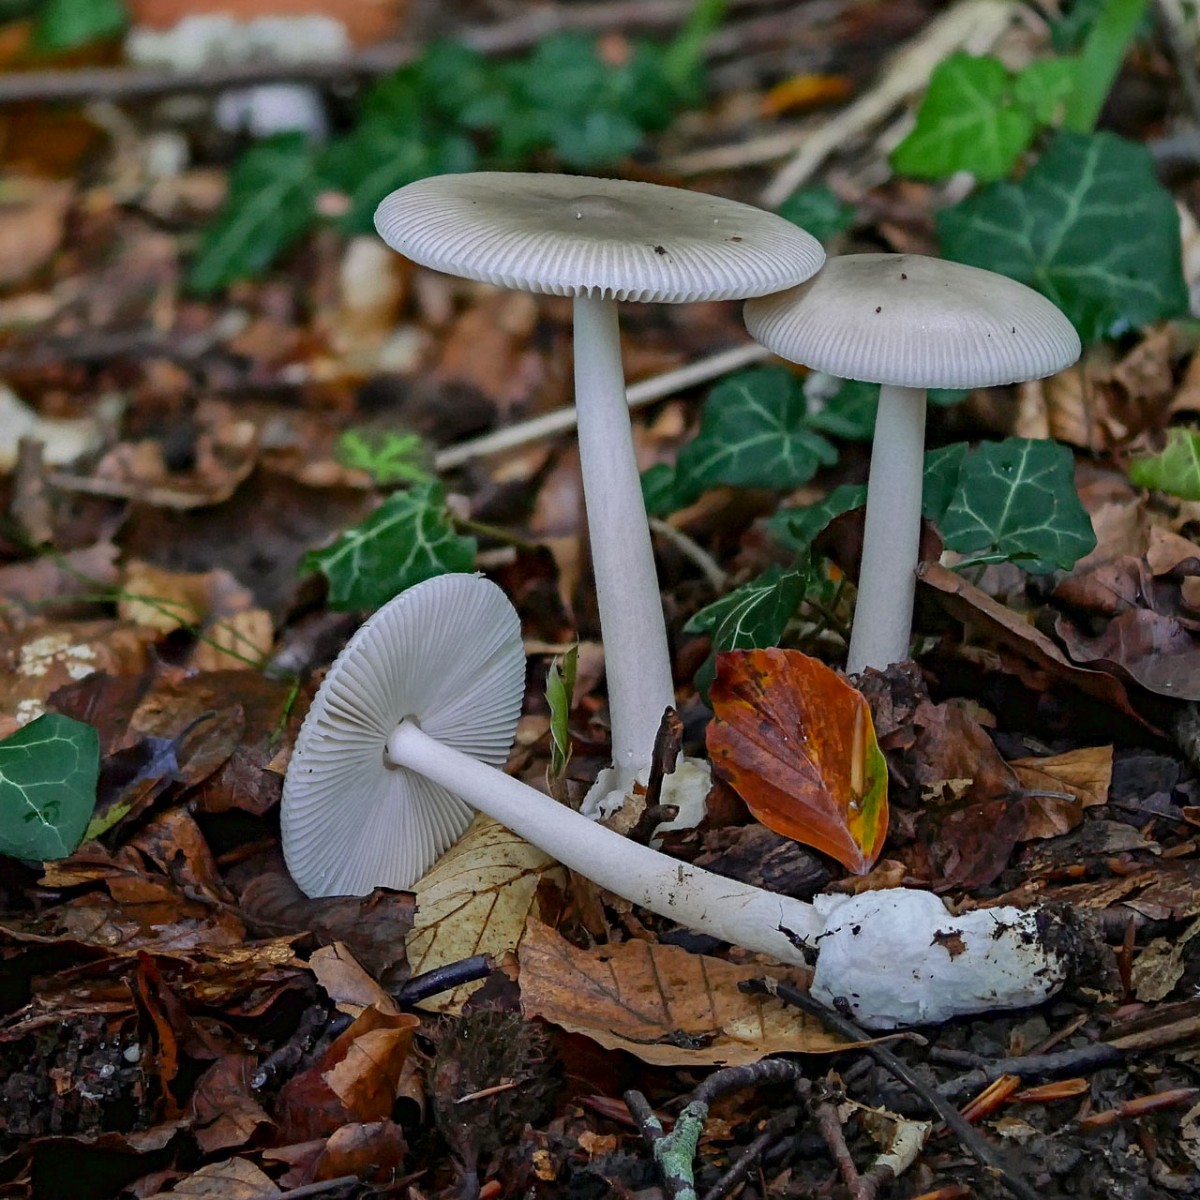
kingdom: Fungi
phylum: Basidiomycota
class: Agaricomycetes
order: Agaricales
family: Amanitaceae
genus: Amanita
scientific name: Amanita vaginata
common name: grå kam-fluesvamp
